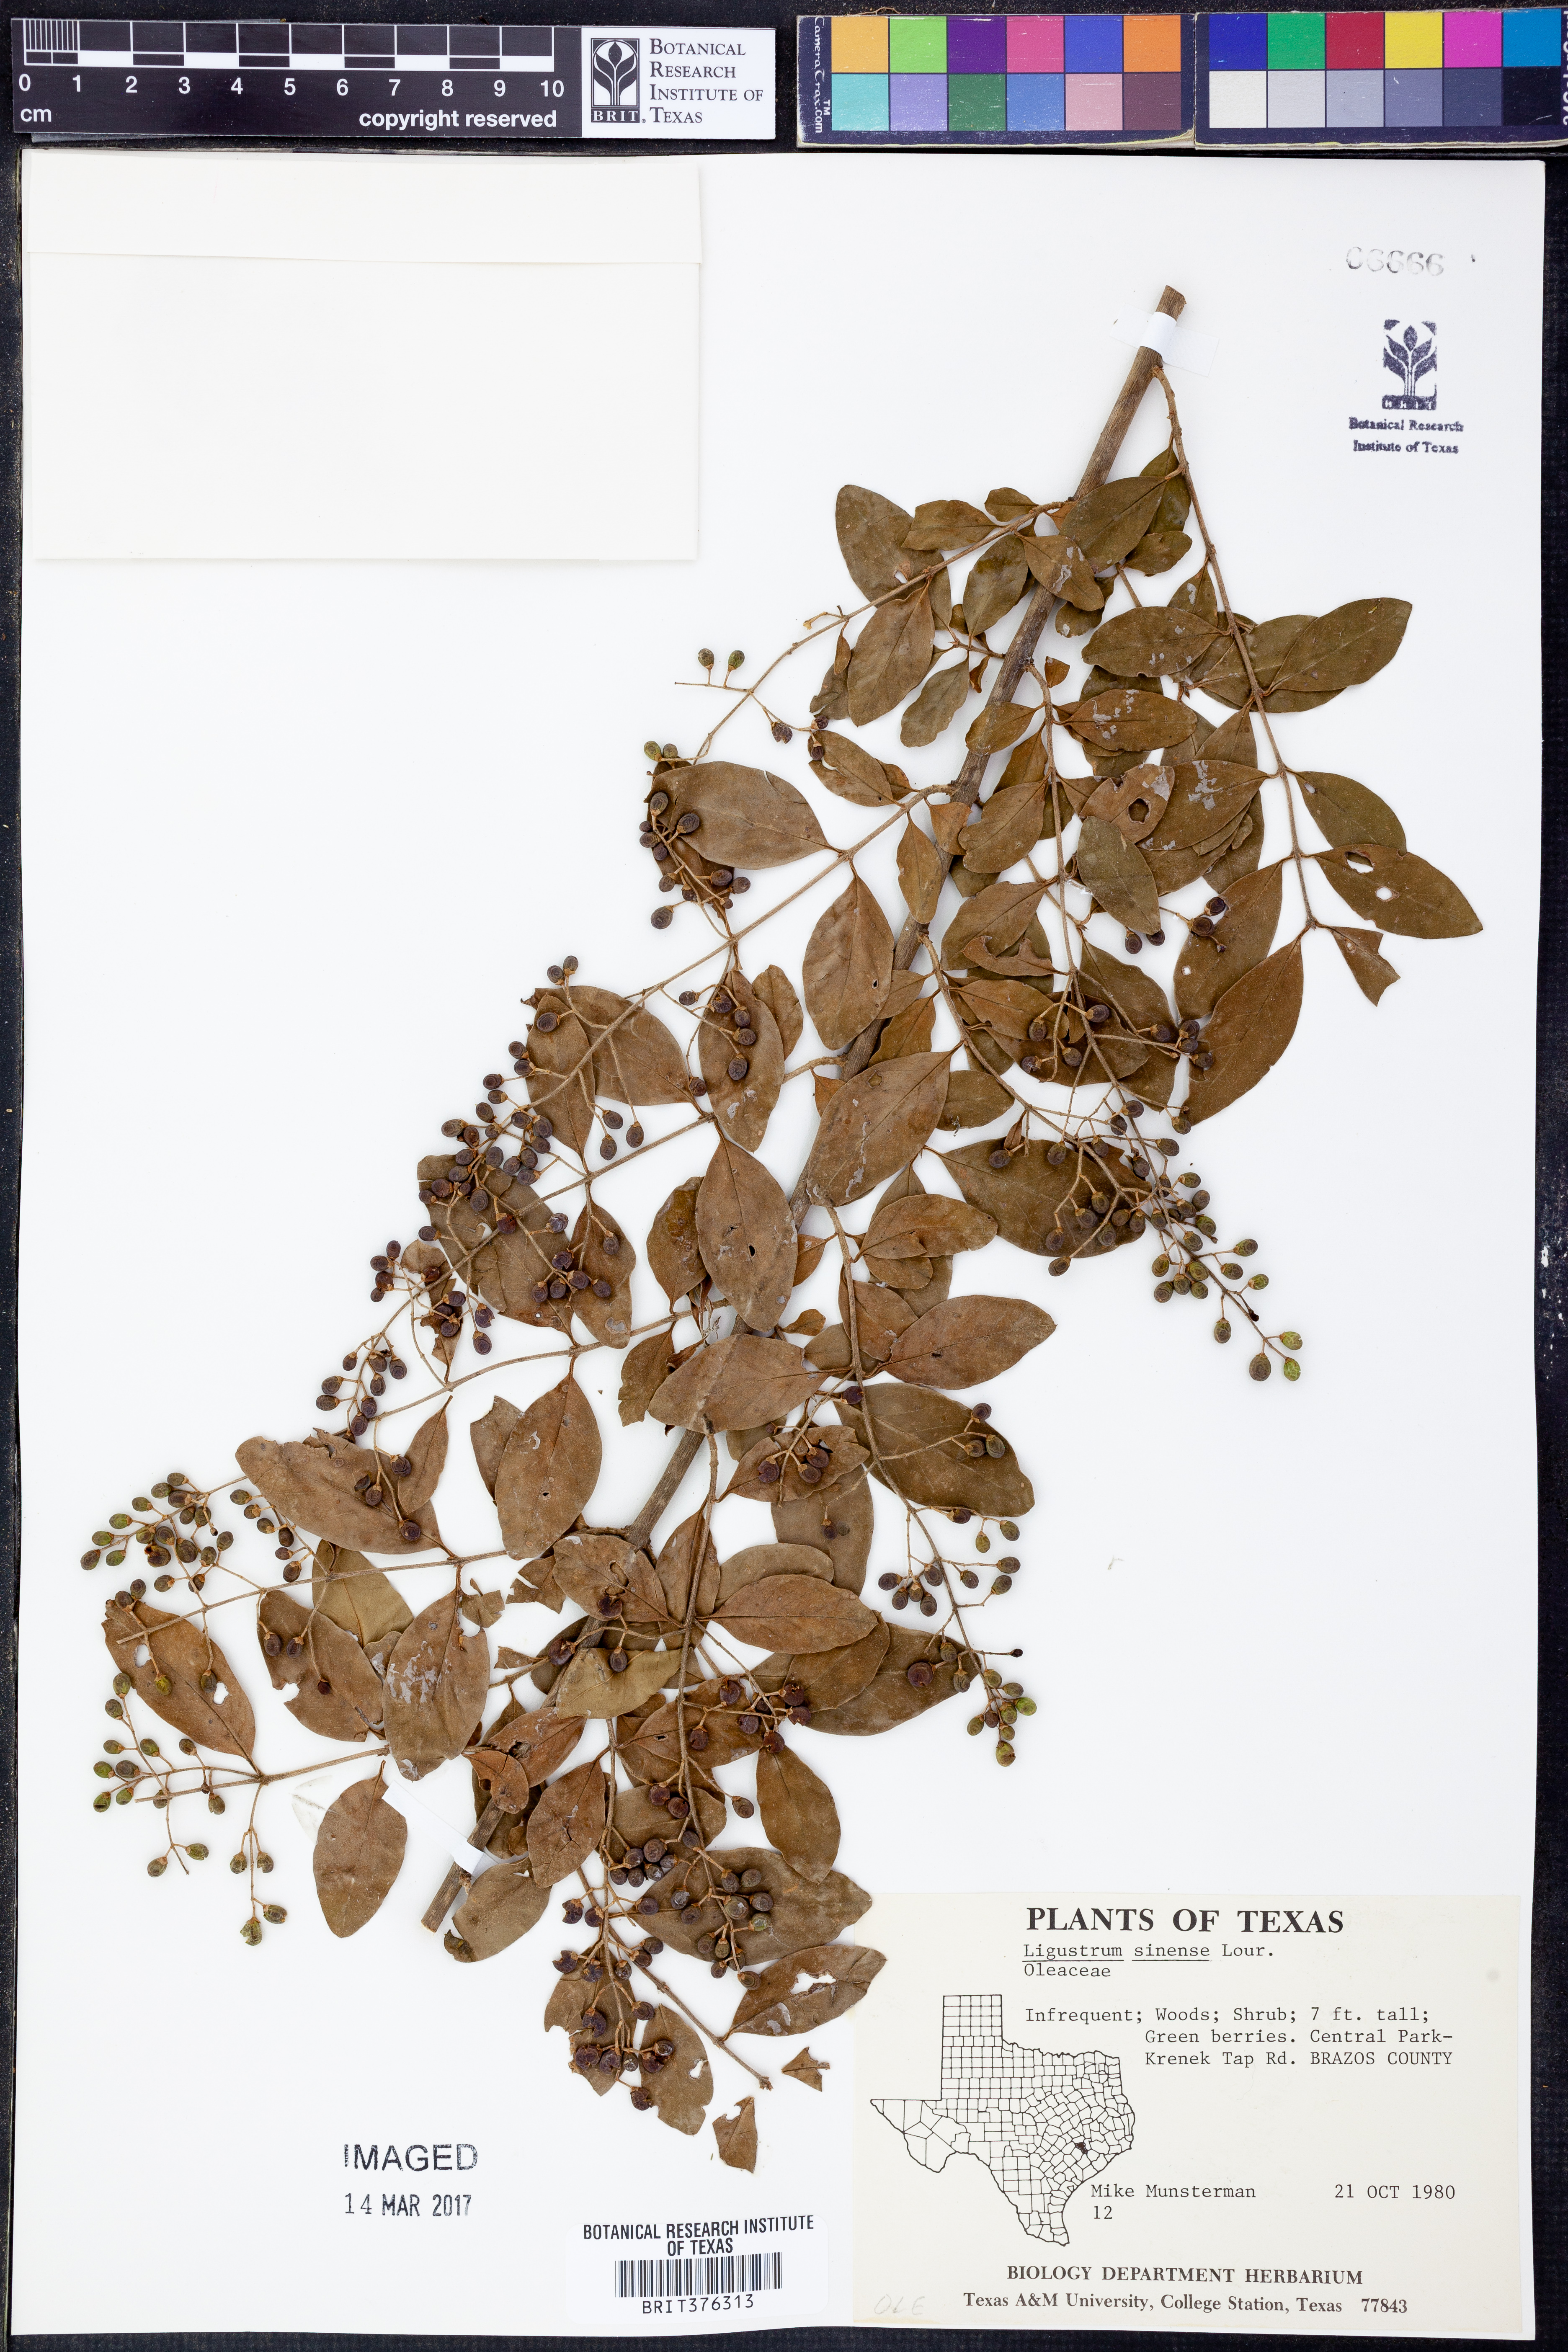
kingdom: Plantae
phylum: Tracheophyta
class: Magnoliopsida
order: Lamiales
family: Oleaceae
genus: Ligustrum
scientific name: Ligustrum sinense
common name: Chinese privet
